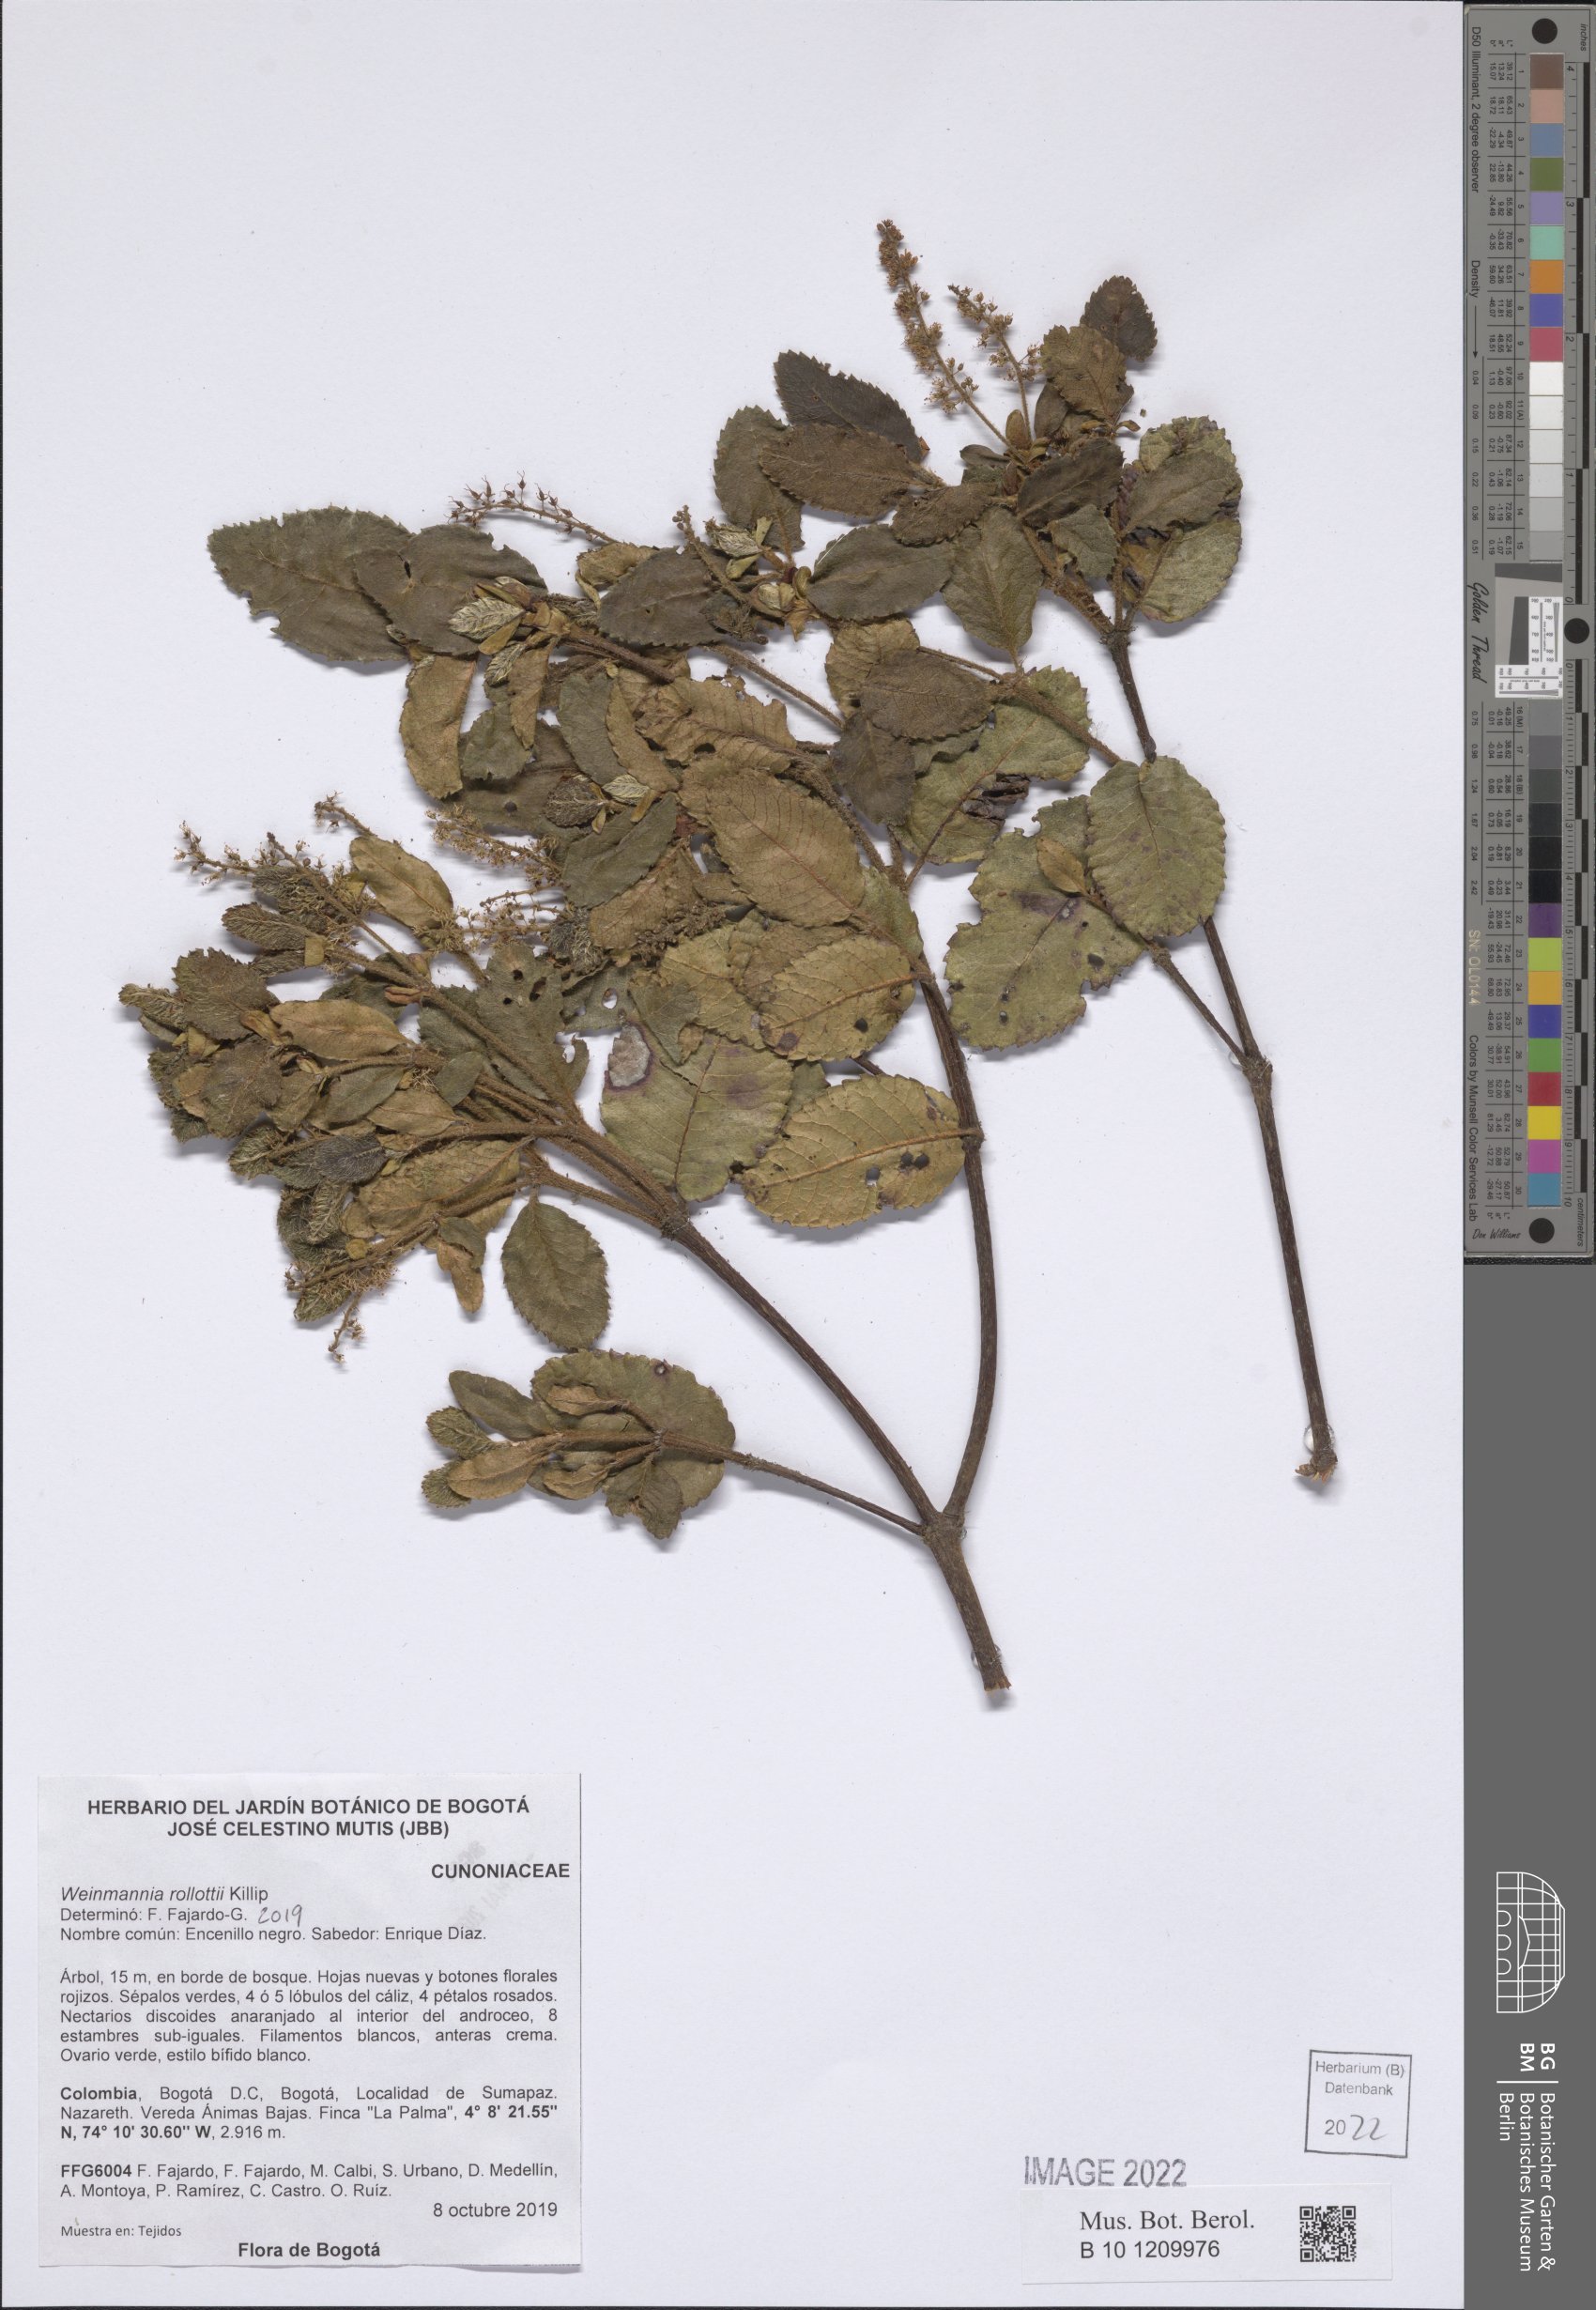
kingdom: Plantae
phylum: Tracheophyta
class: Magnoliopsida
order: Oxalidales
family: Cunoniaceae
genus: Weinmannia
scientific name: Weinmannia rollottii
